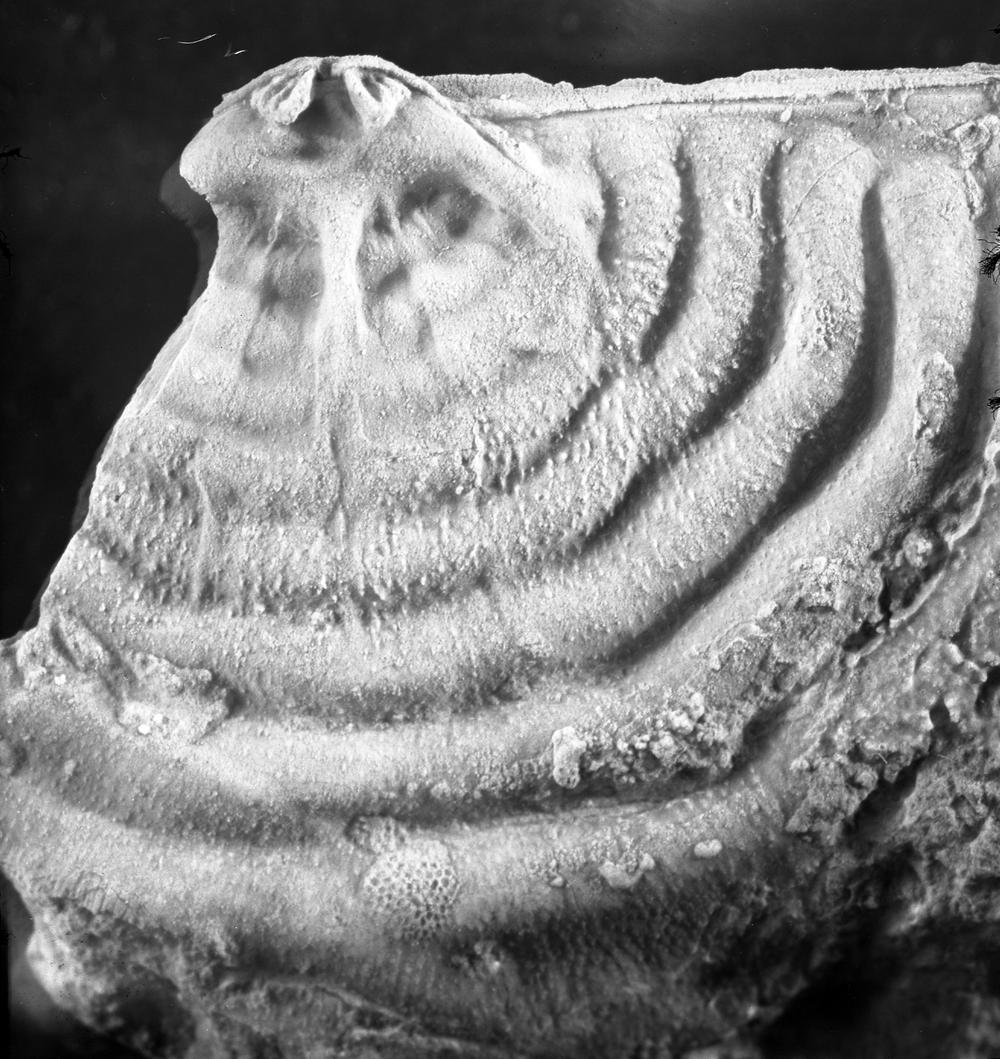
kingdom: Animalia
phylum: Brachiopoda
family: Strophomenidae
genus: Leptaena
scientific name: Leptaena alliku
